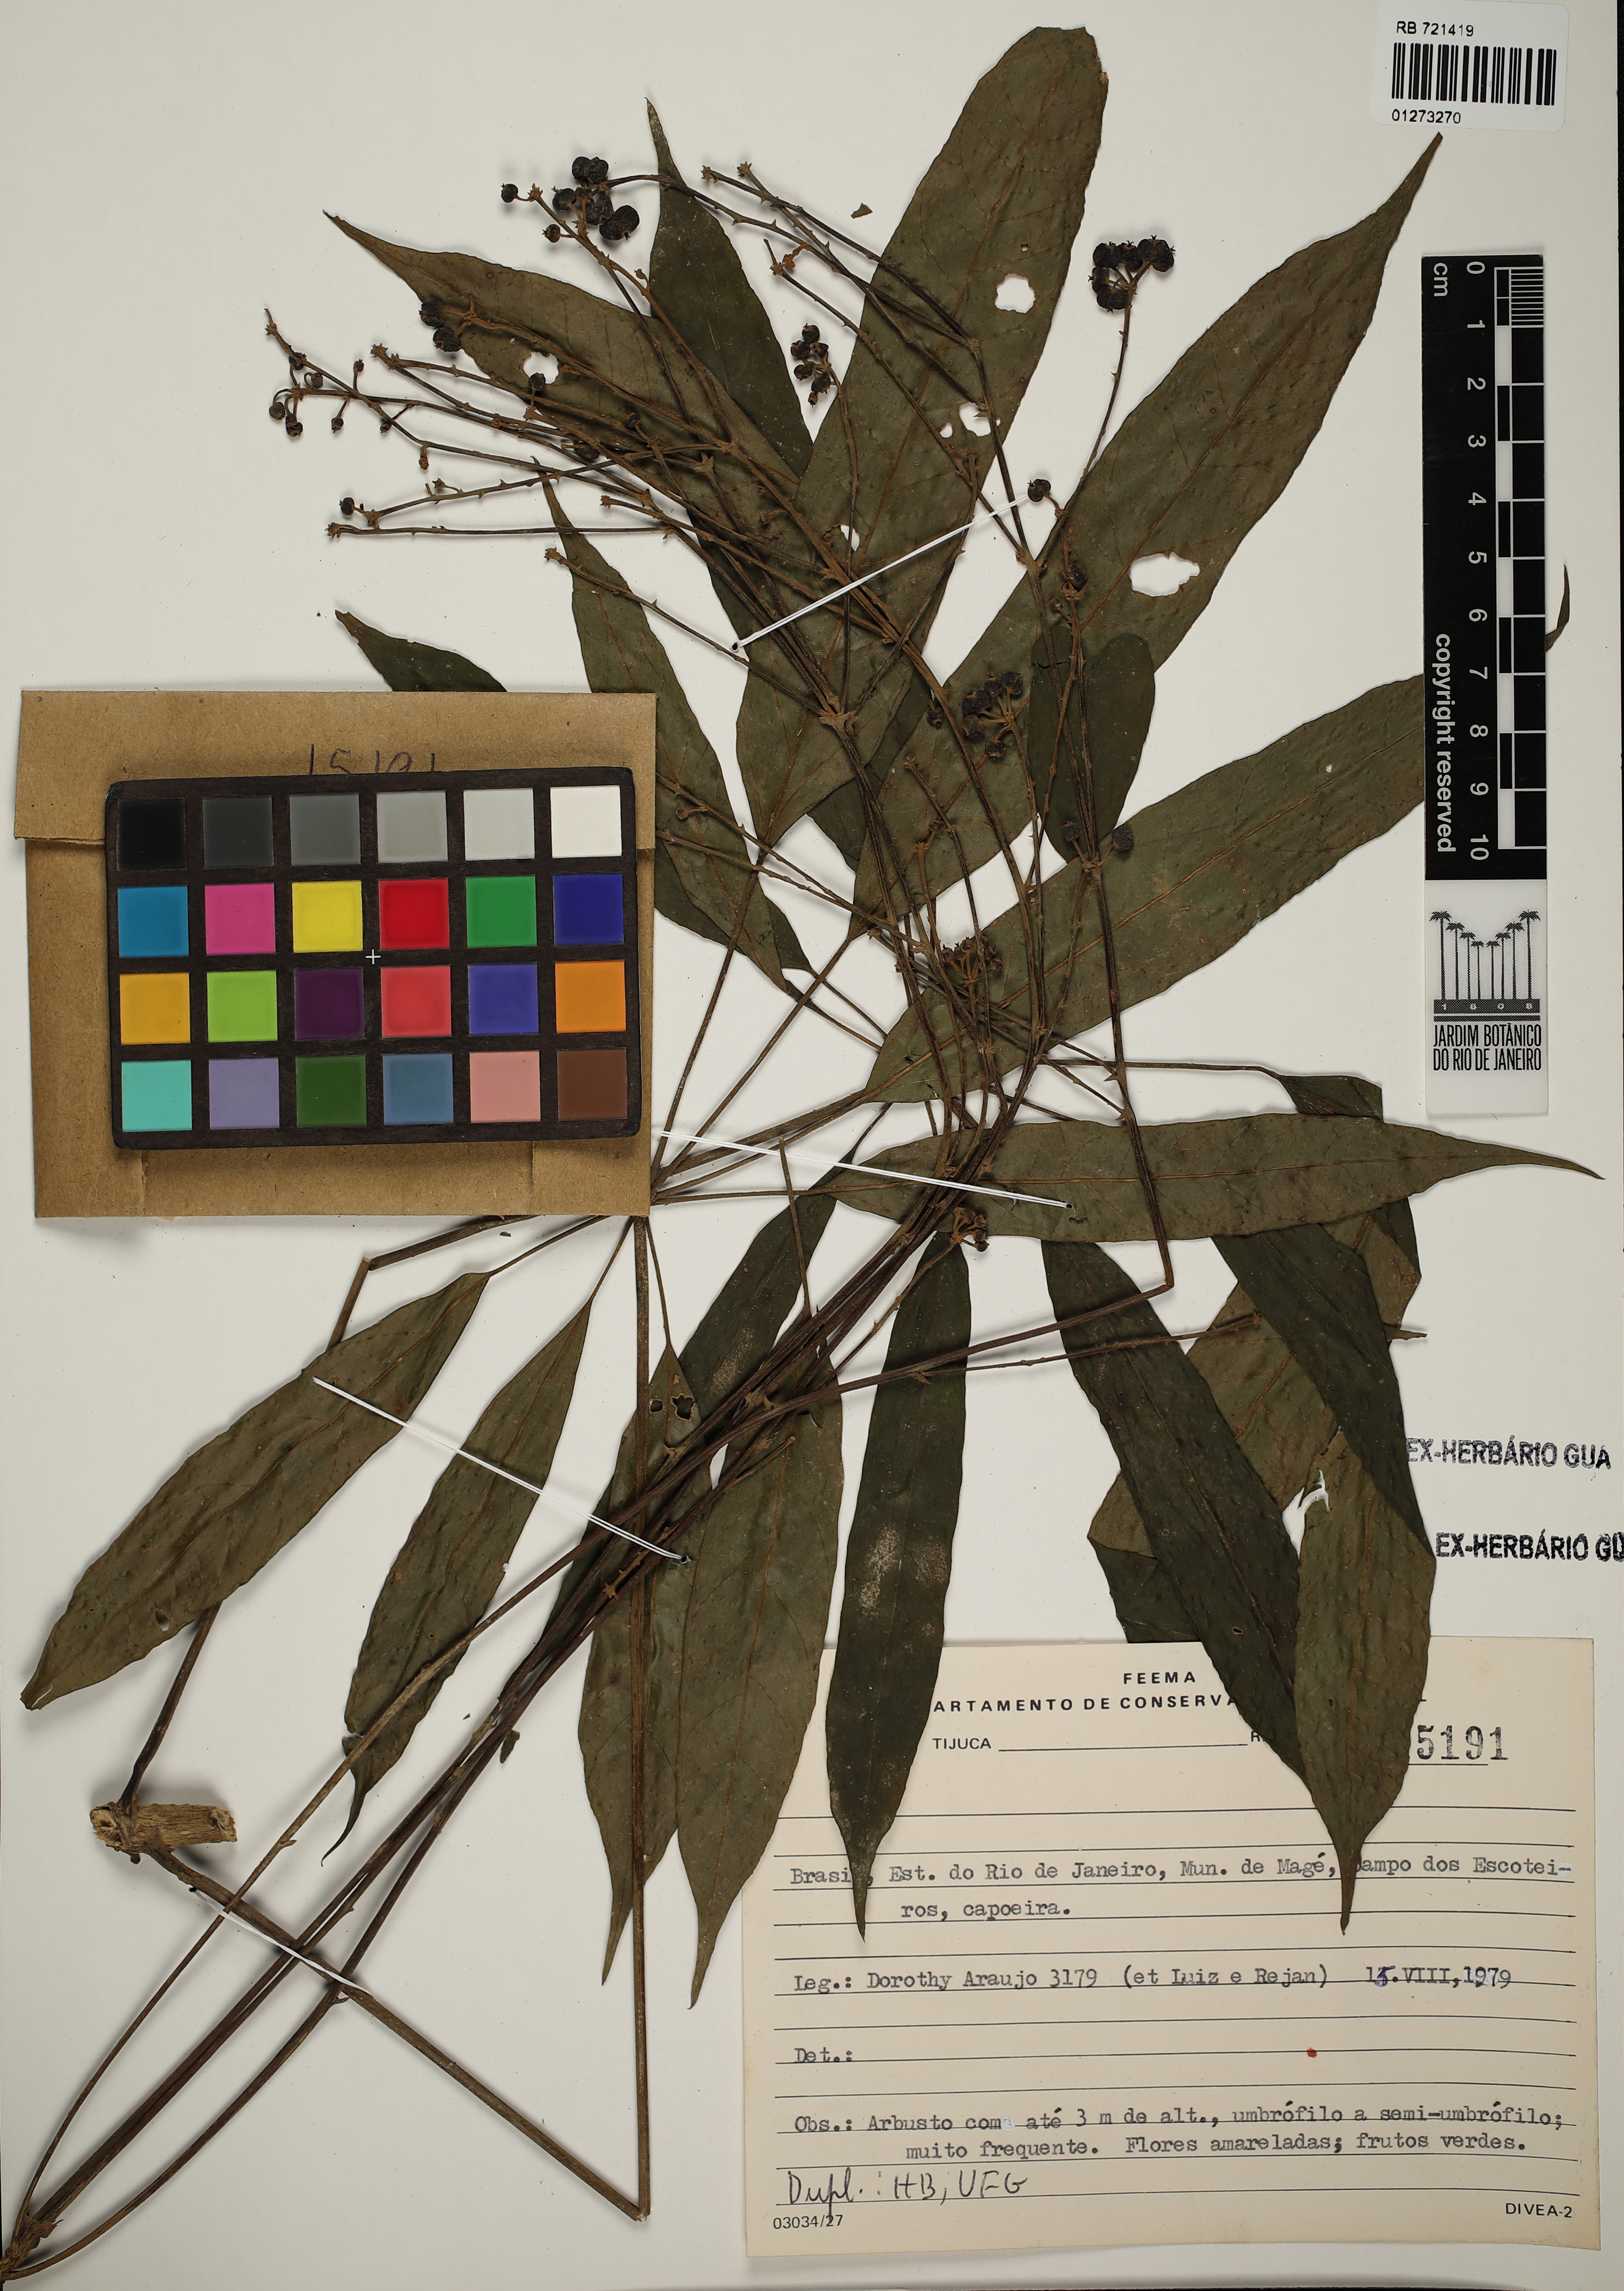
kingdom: Plantae
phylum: Tracheophyta
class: Magnoliopsida
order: Apiales
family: Araliaceae
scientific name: Araliaceae
